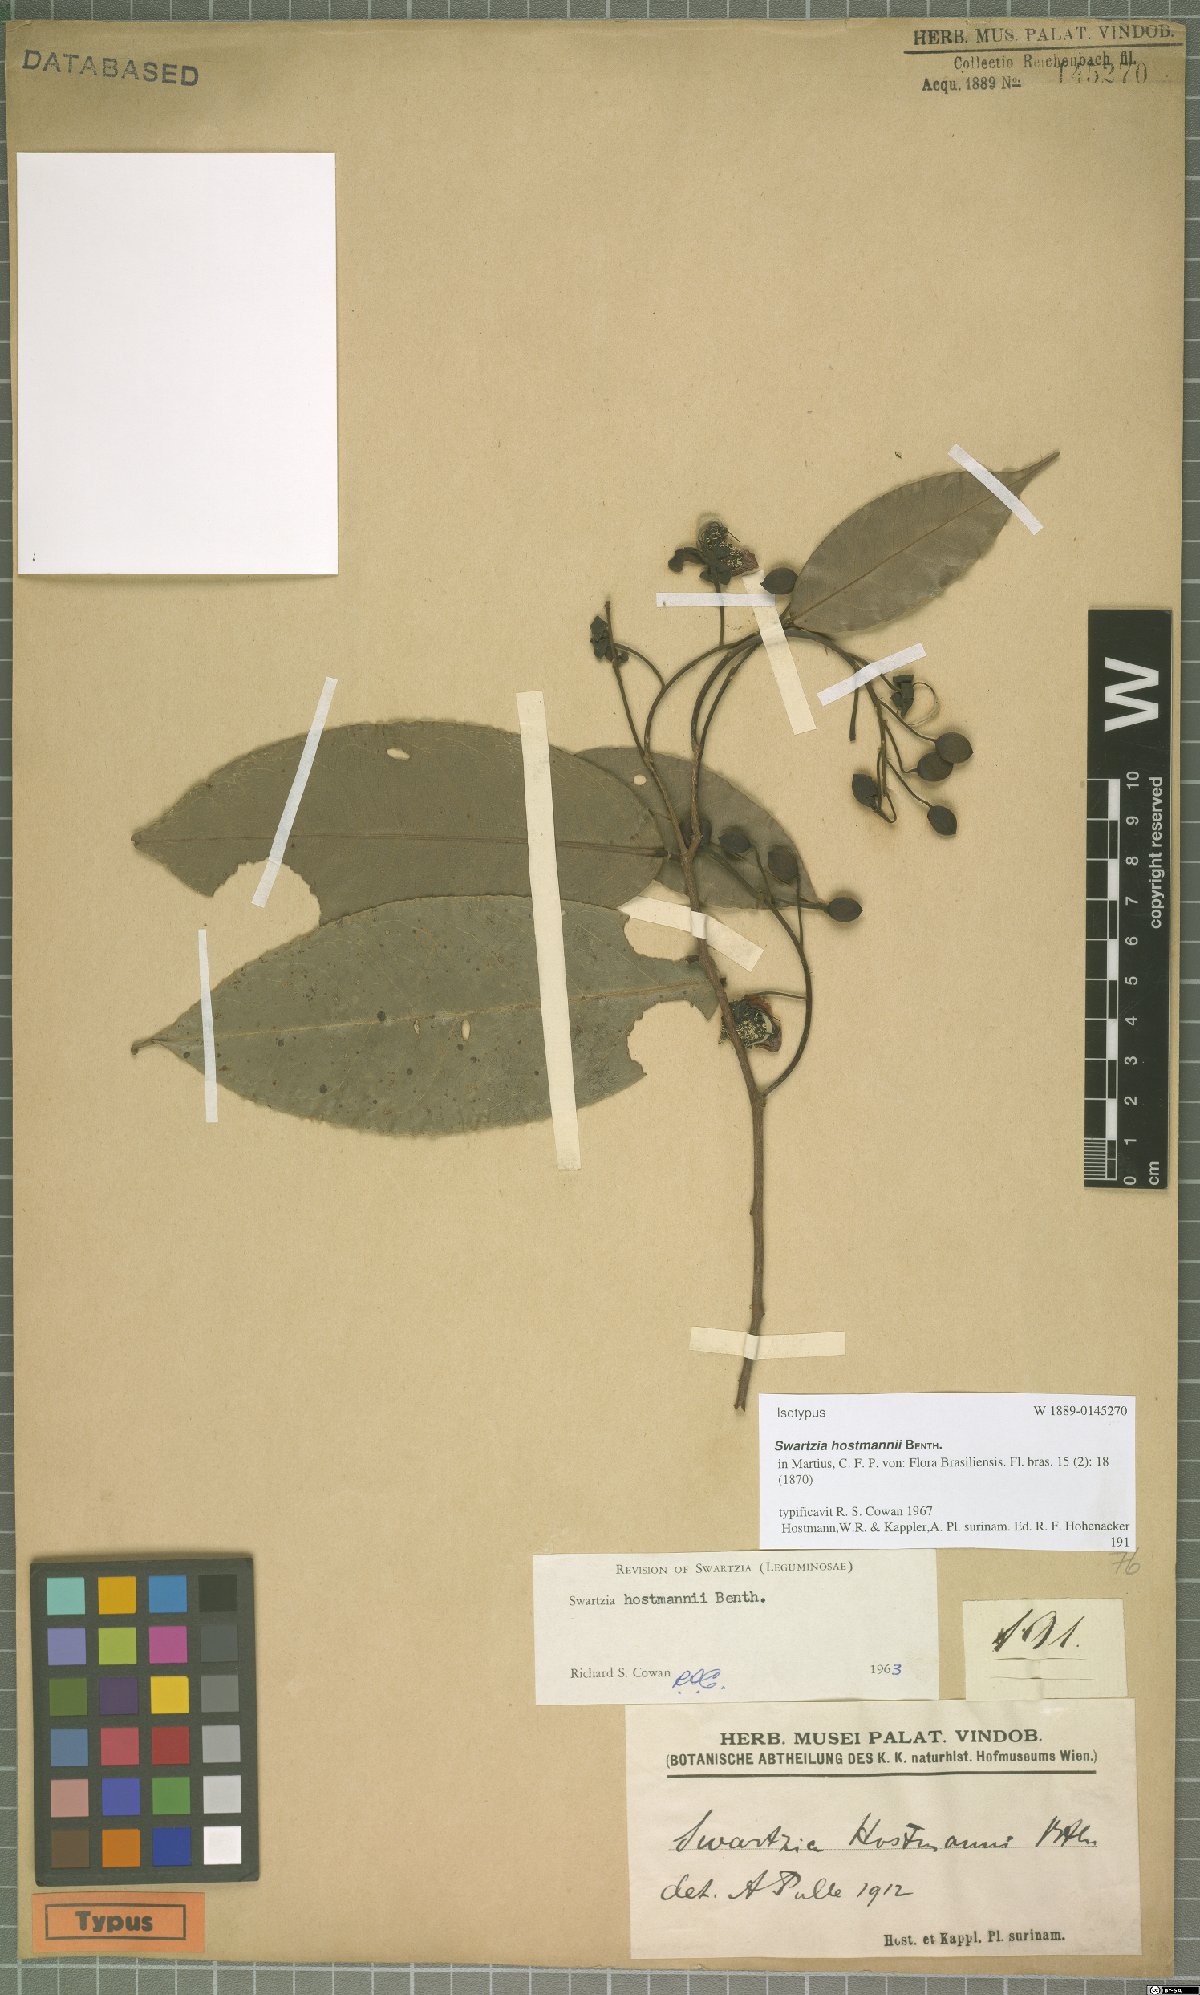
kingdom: Plantae
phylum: Tracheophyta
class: Magnoliopsida
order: Fabales
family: Fabaceae
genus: Swartzia
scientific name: Swartzia hostmannii
